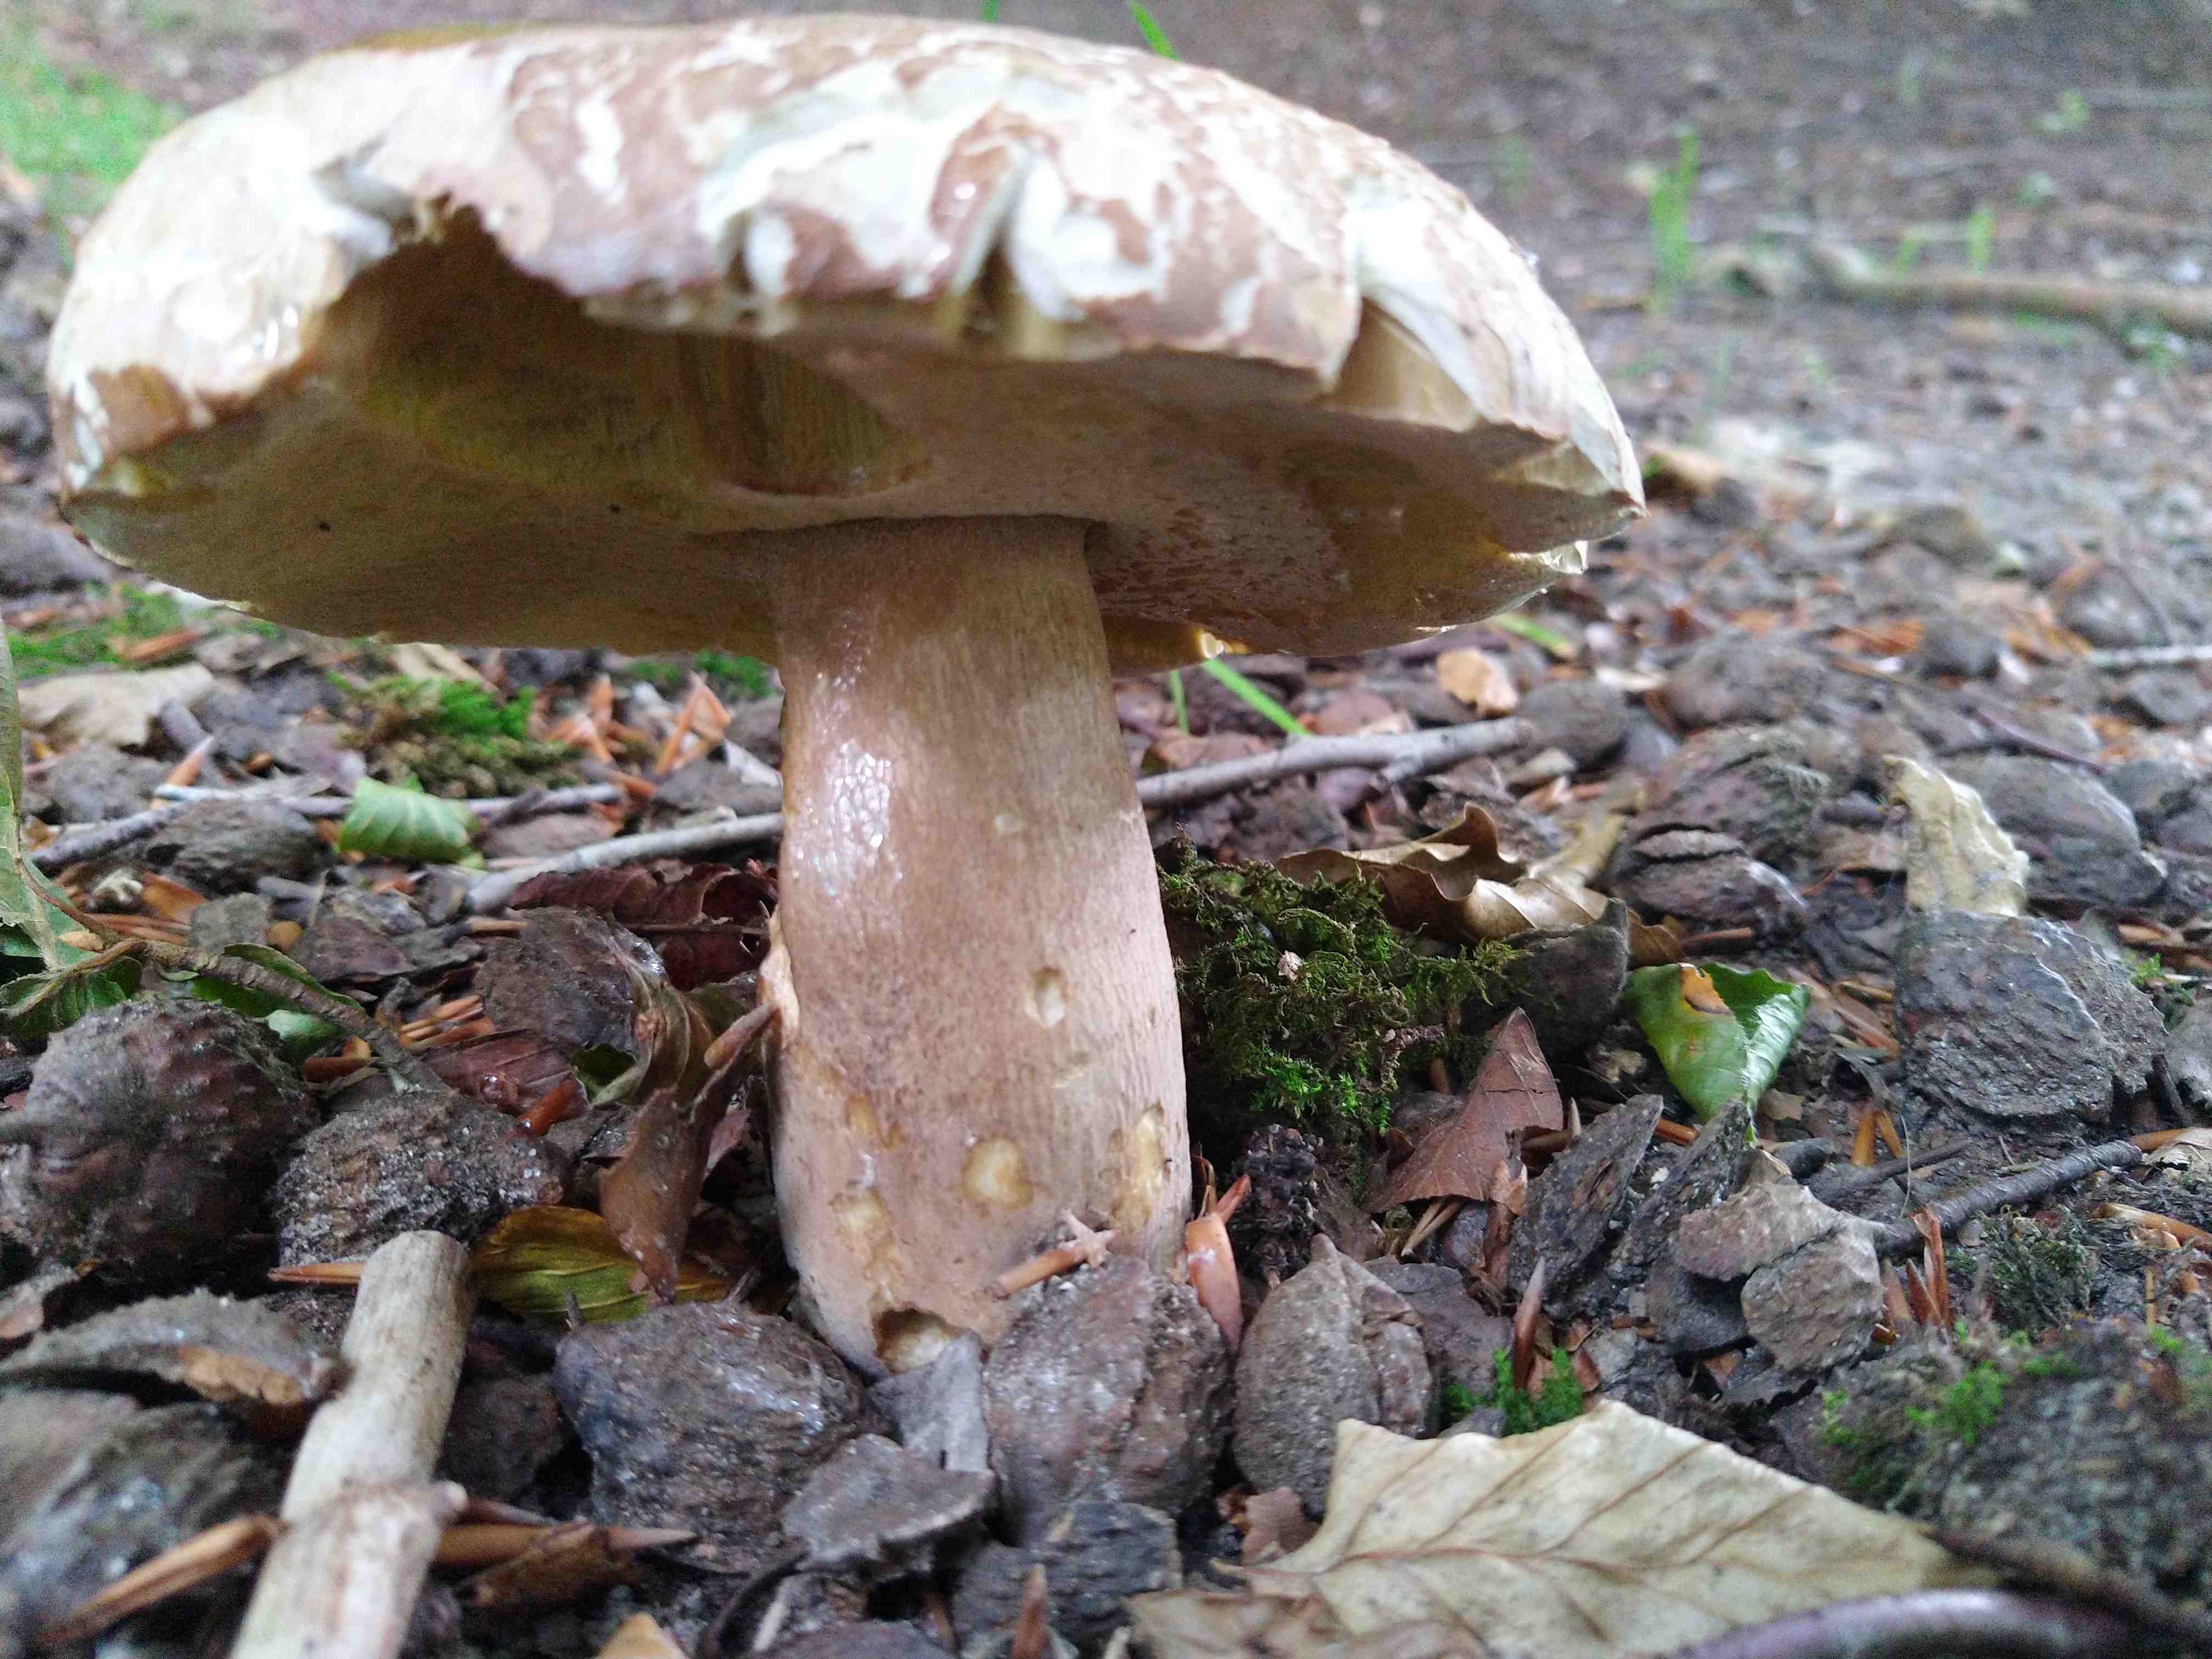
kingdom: Fungi
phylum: Basidiomycota
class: Agaricomycetes
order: Boletales
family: Boletaceae
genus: Boletus
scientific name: Boletus reticulatus
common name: sommer-rørhat
